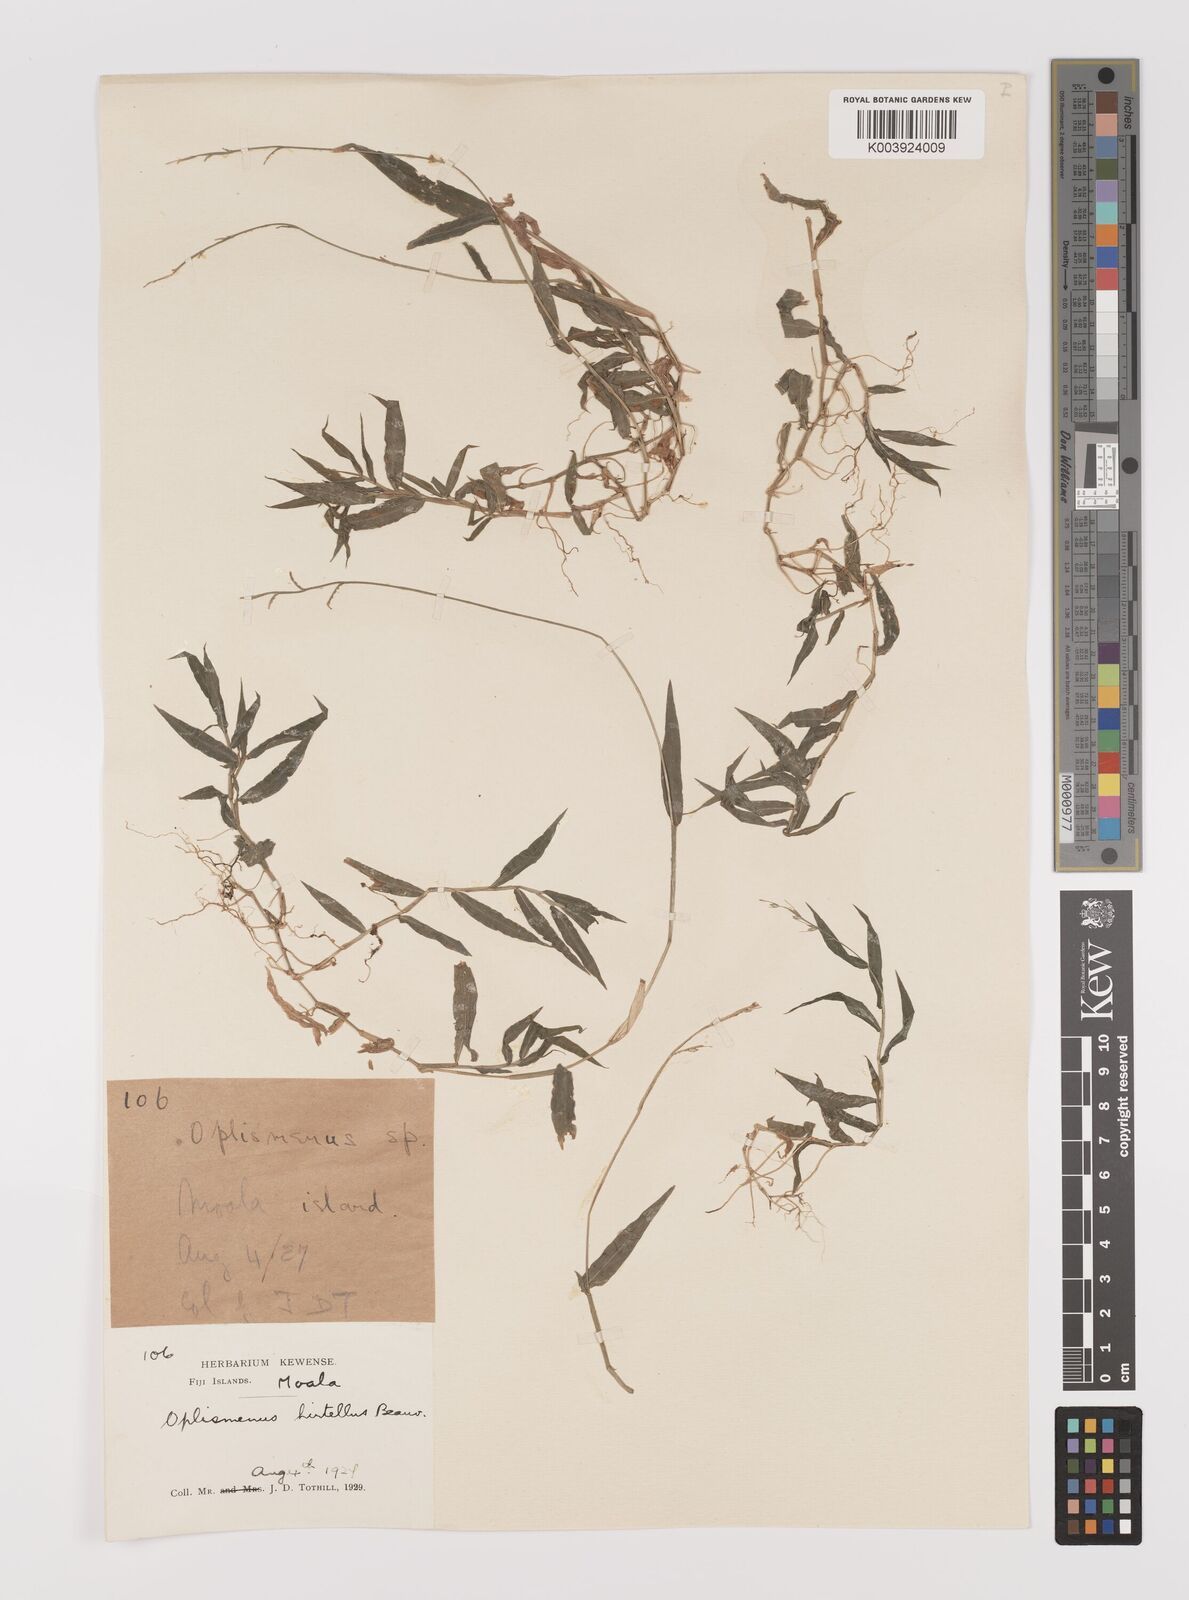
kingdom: Plantae
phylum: Tracheophyta
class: Liliopsida
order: Poales
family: Poaceae
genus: Oplismenus
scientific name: Oplismenus hirtellus
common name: Basketgrass
